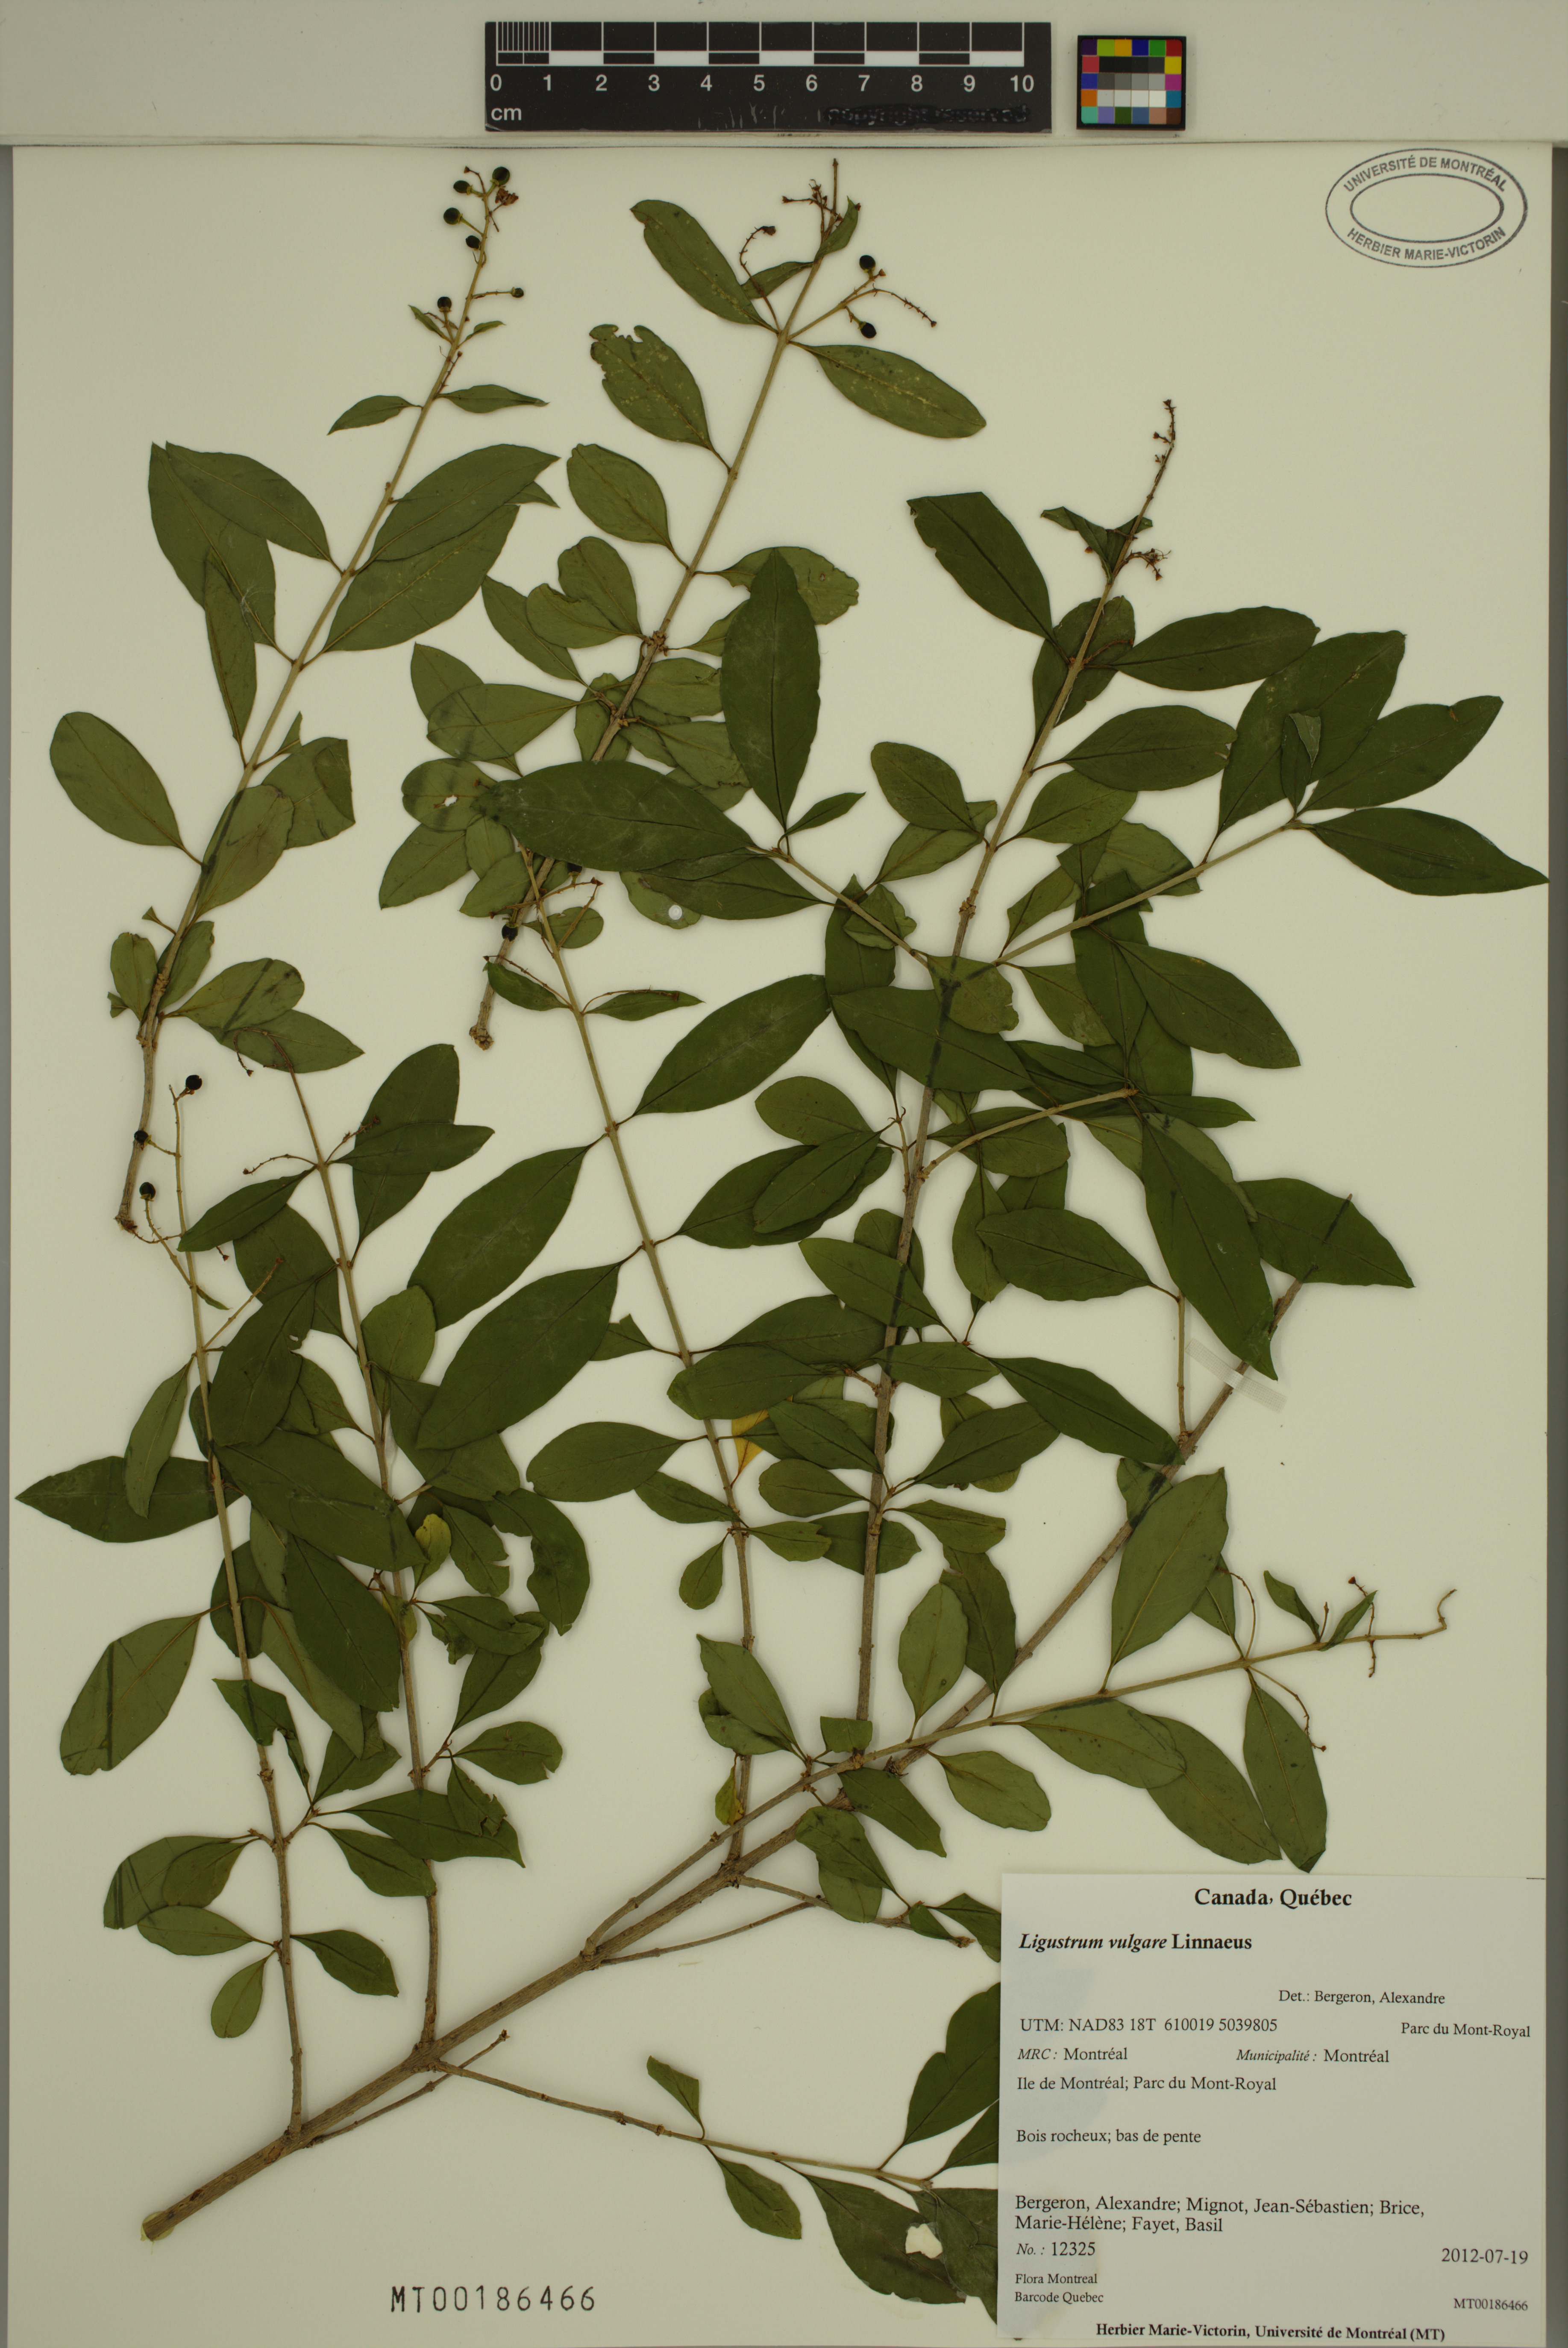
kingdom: Plantae
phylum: Tracheophyta
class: Magnoliopsida
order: Lamiales
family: Oleaceae
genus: Ligustrum
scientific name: Ligustrum vulgare
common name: Wild privet
